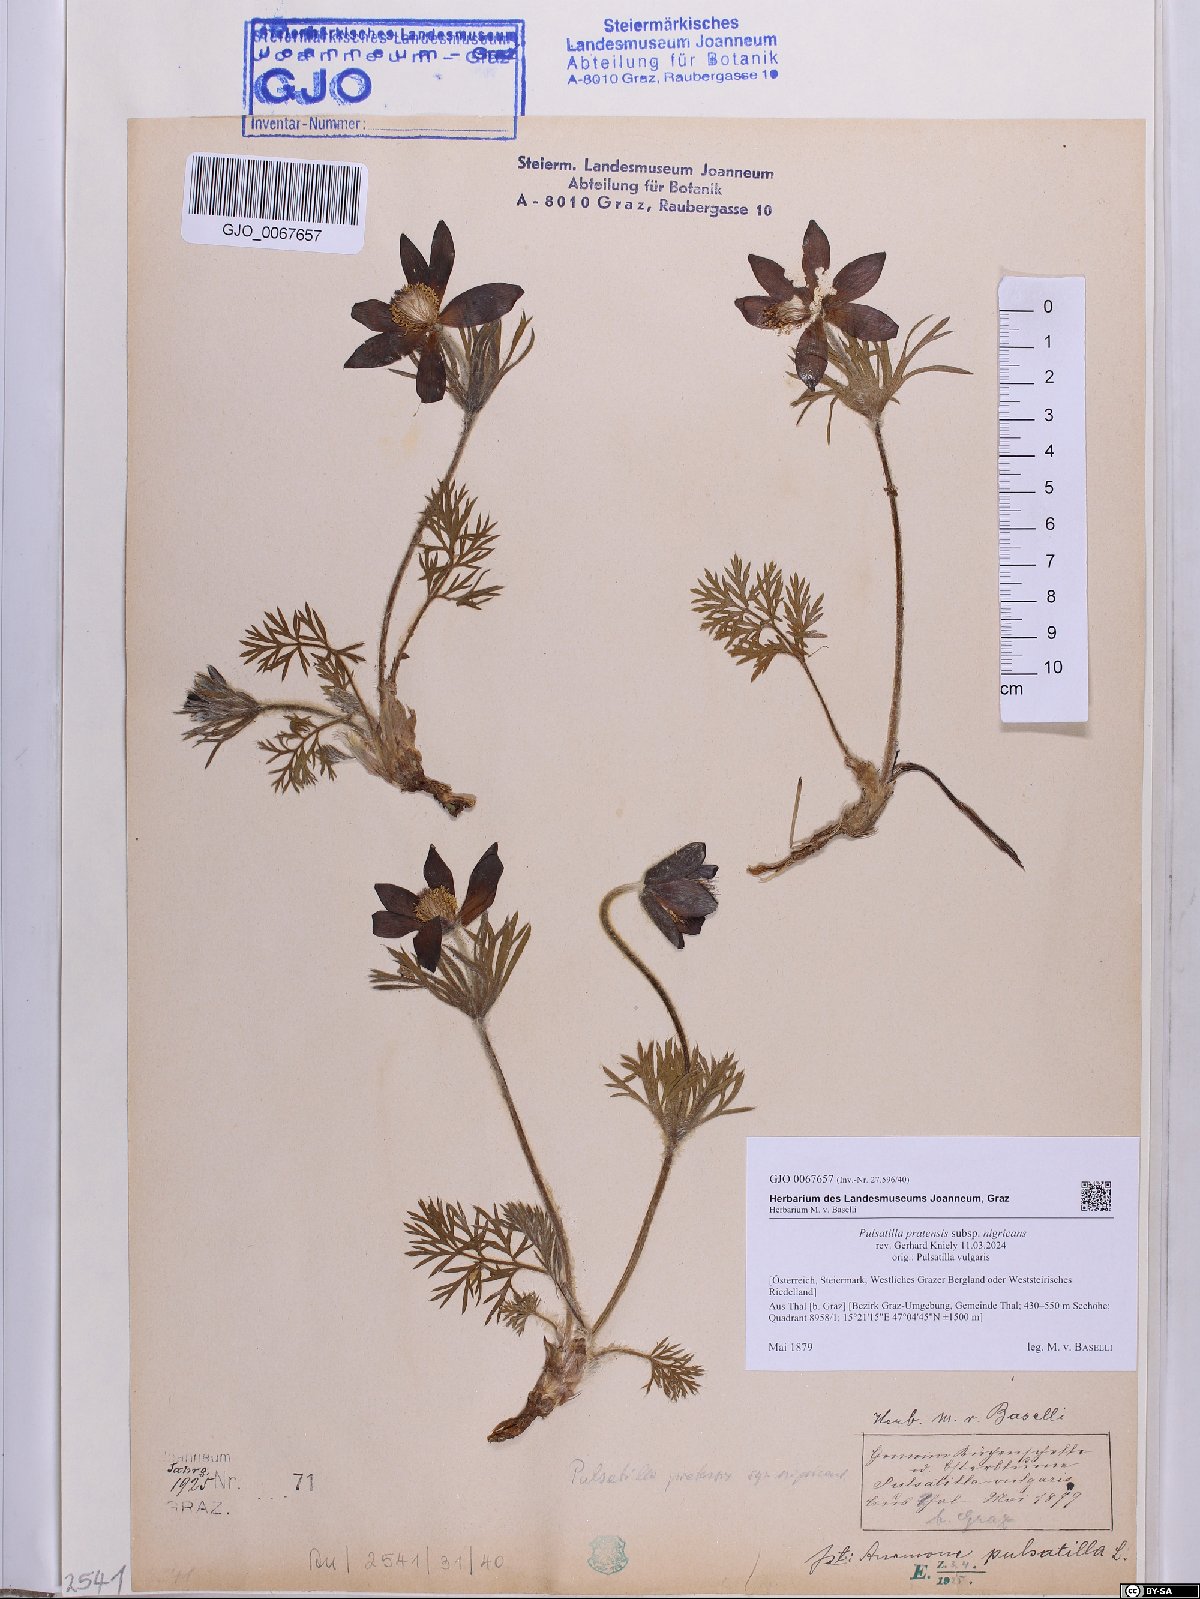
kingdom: Plantae
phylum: Tracheophyta
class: Magnoliopsida
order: Ranunculales
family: Ranunculaceae
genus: Pulsatilla
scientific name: Pulsatilla pratensis
